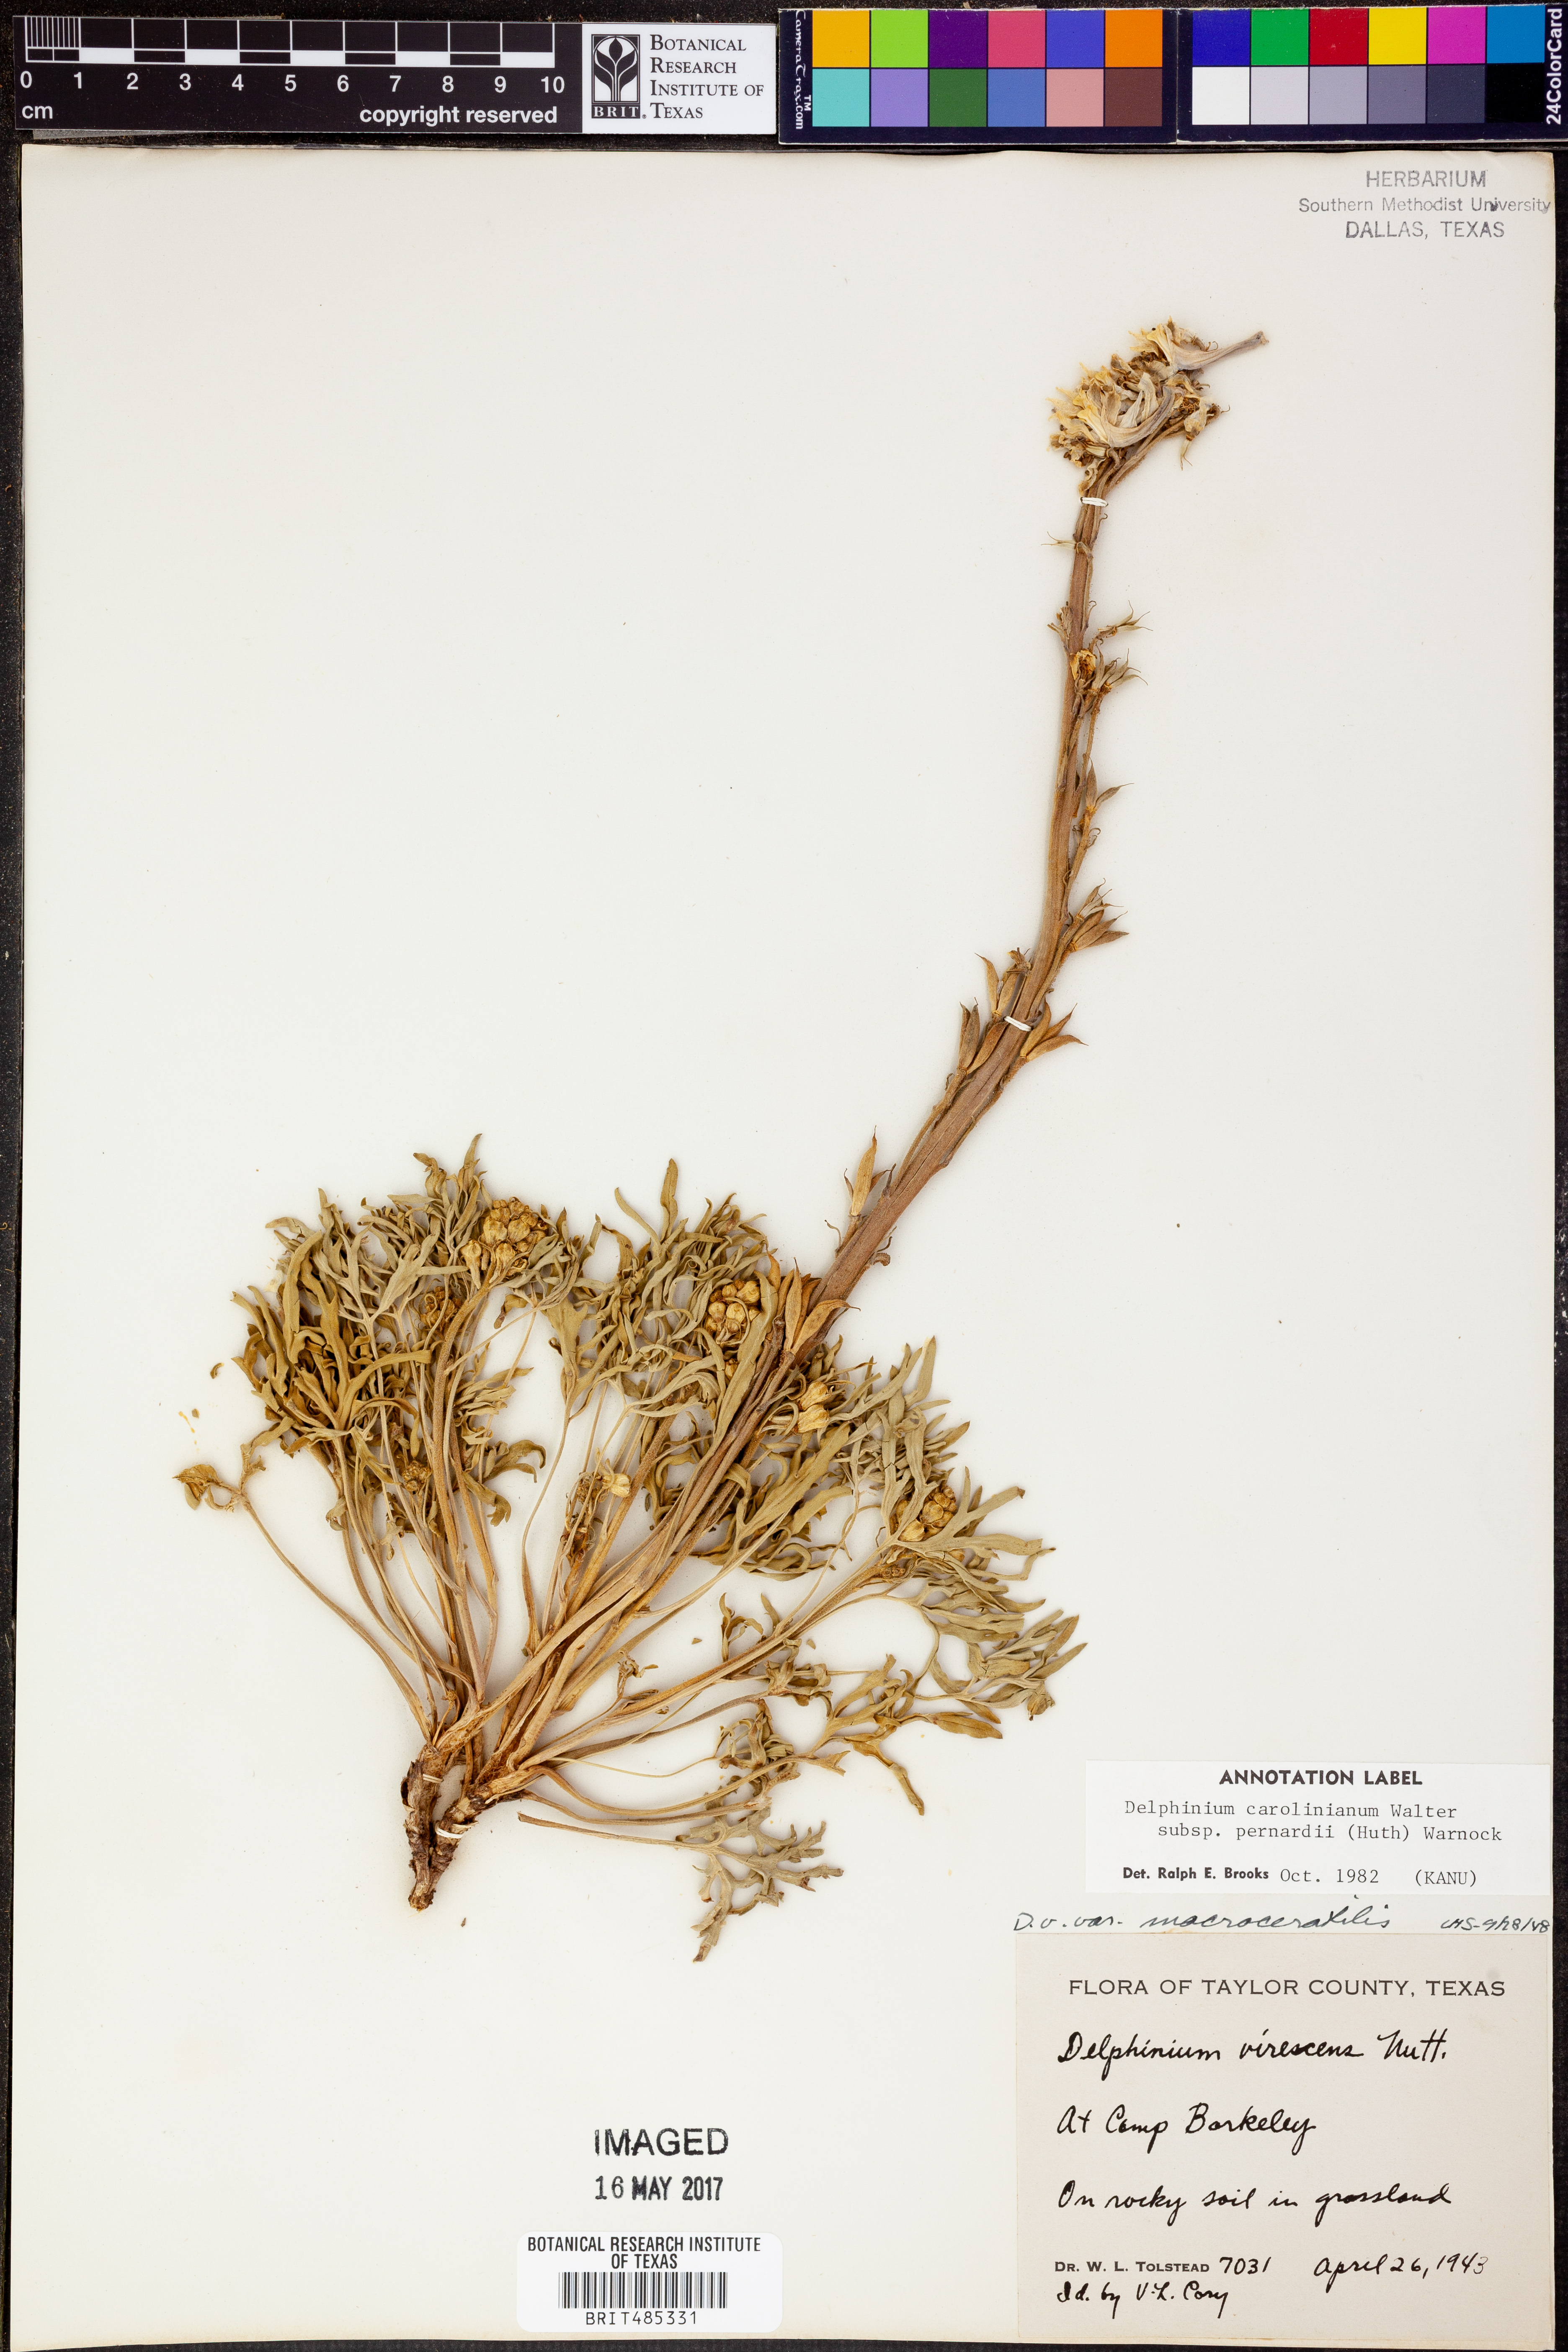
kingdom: Plantae
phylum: Tracheophyta
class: Magnoliopsida
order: Ranunculales
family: Ranunculaceae
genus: Delphinium
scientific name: Delphinium carolinianum
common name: Carolina larkspur
